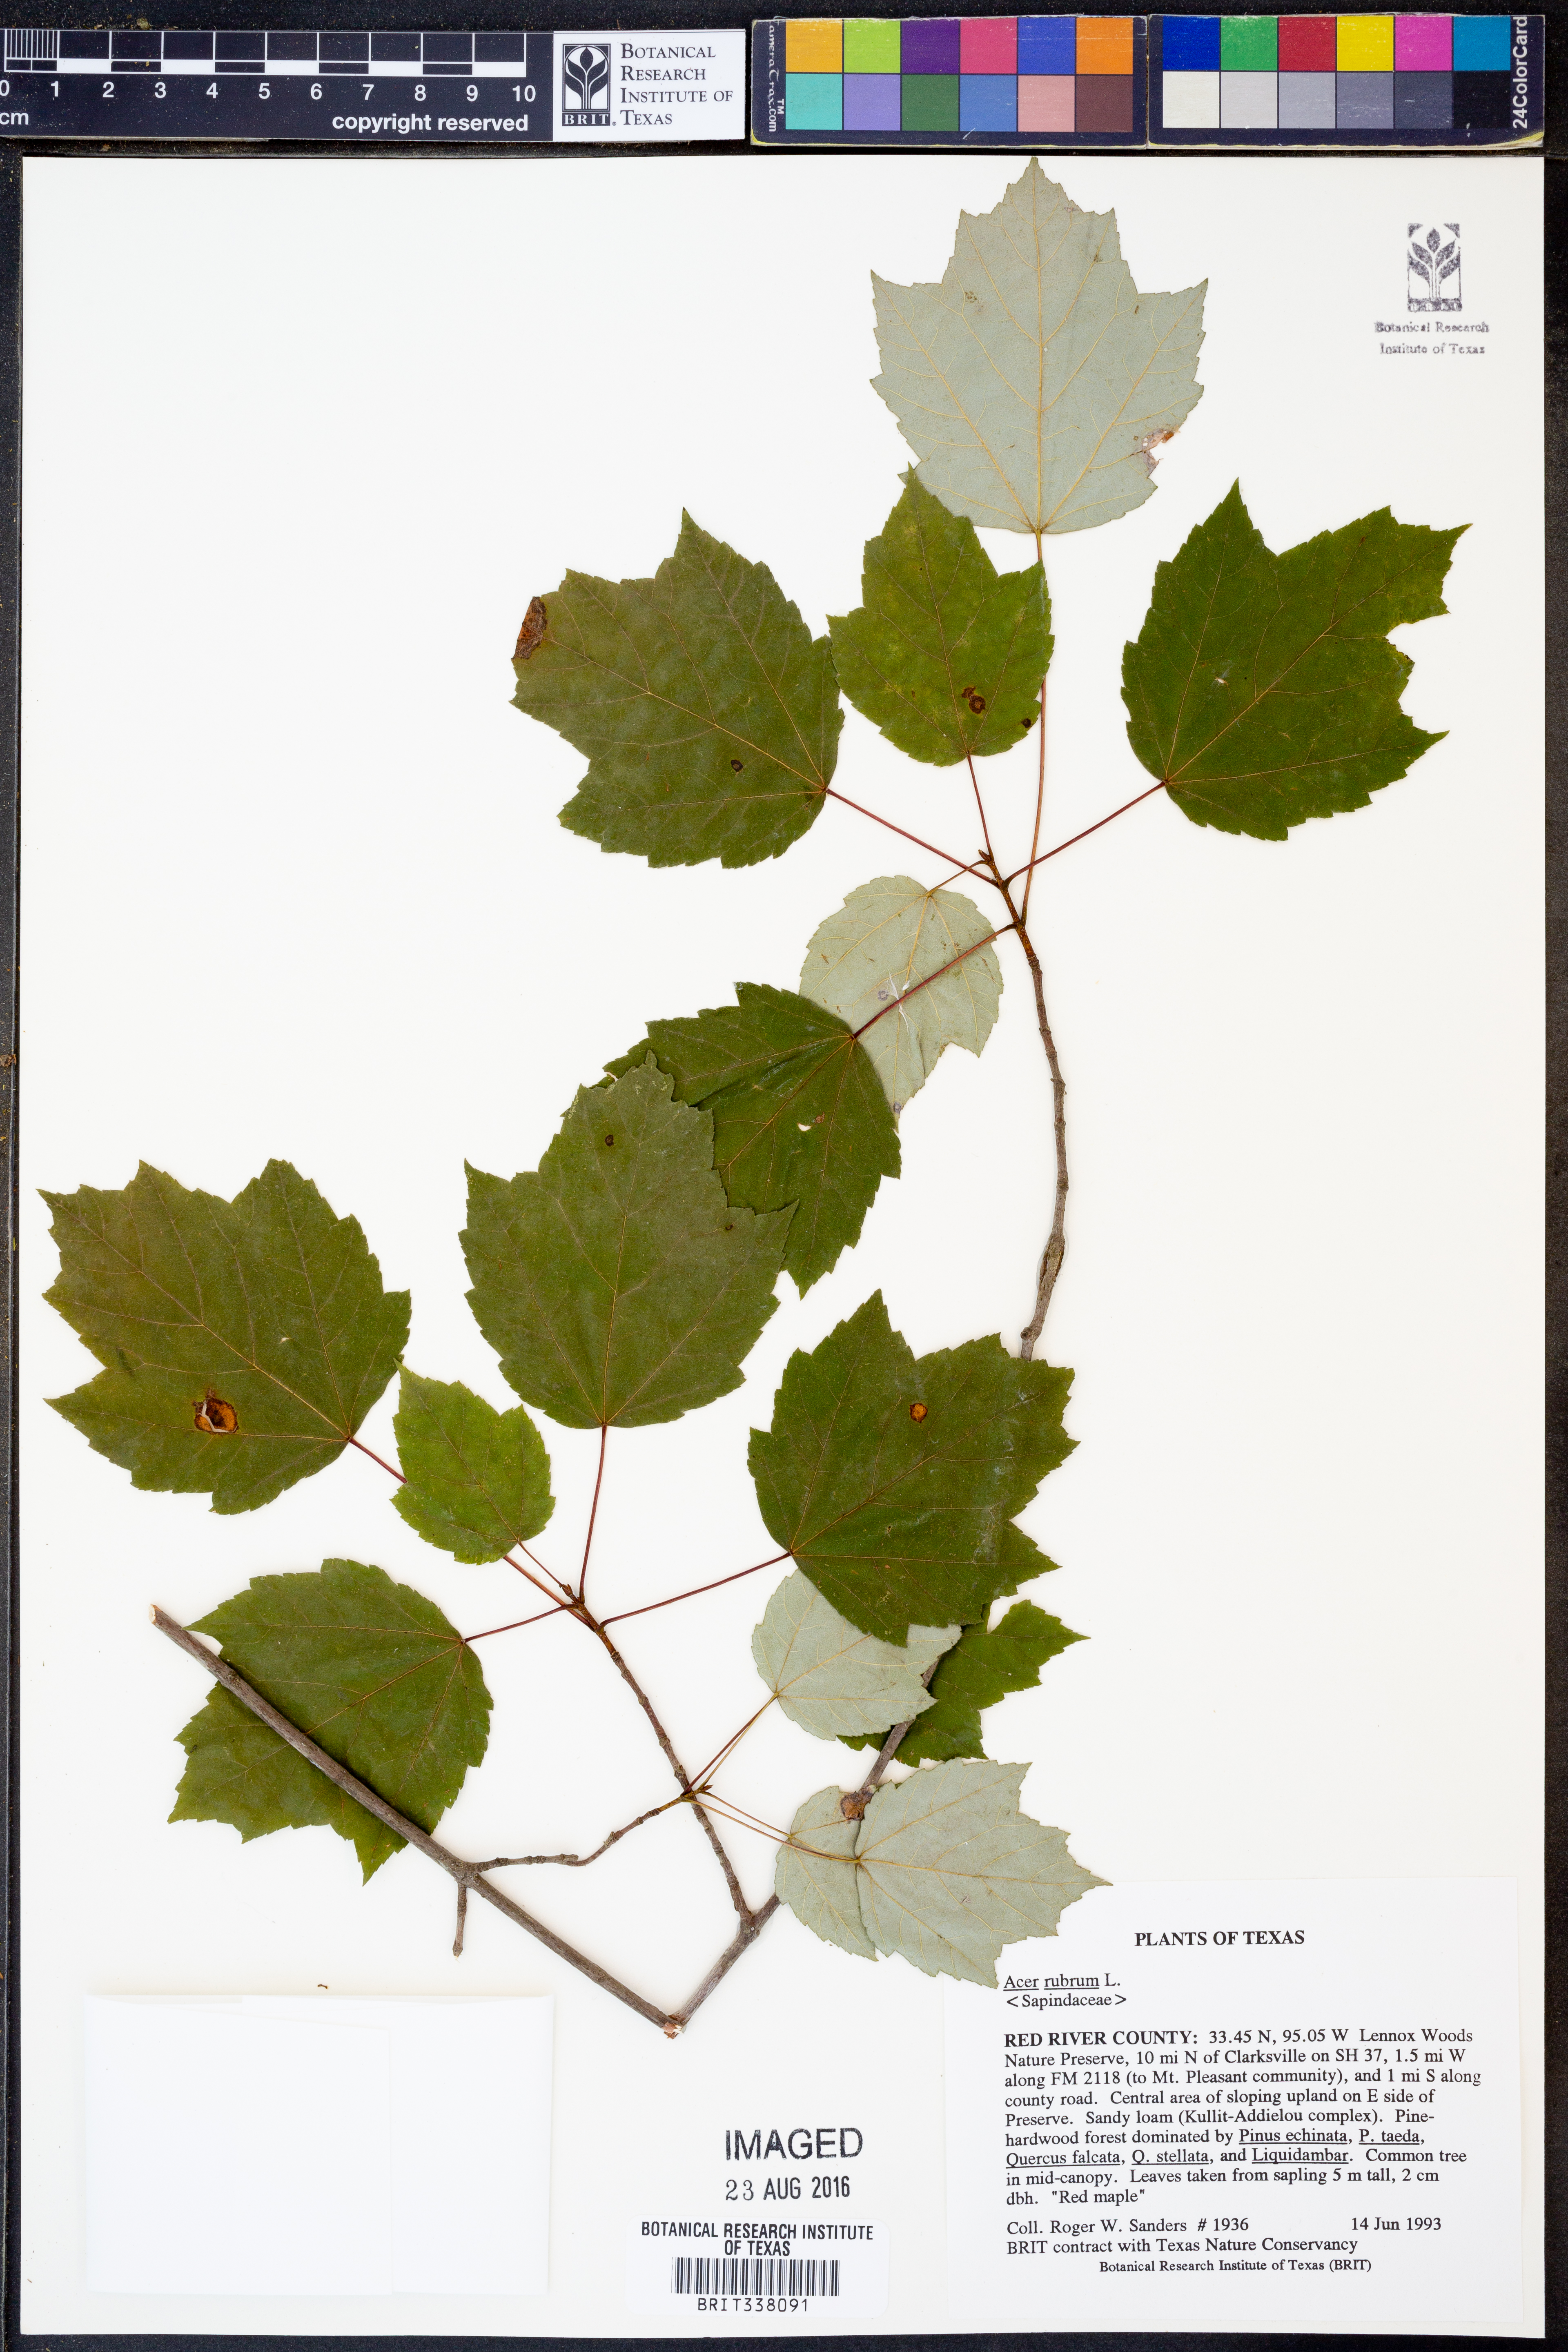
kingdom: Plantae
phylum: Tracheophyta
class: Magnoliopsida
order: Sapindales
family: Sapindaceae
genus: Acer
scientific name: Acer rubrum
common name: Red maple
